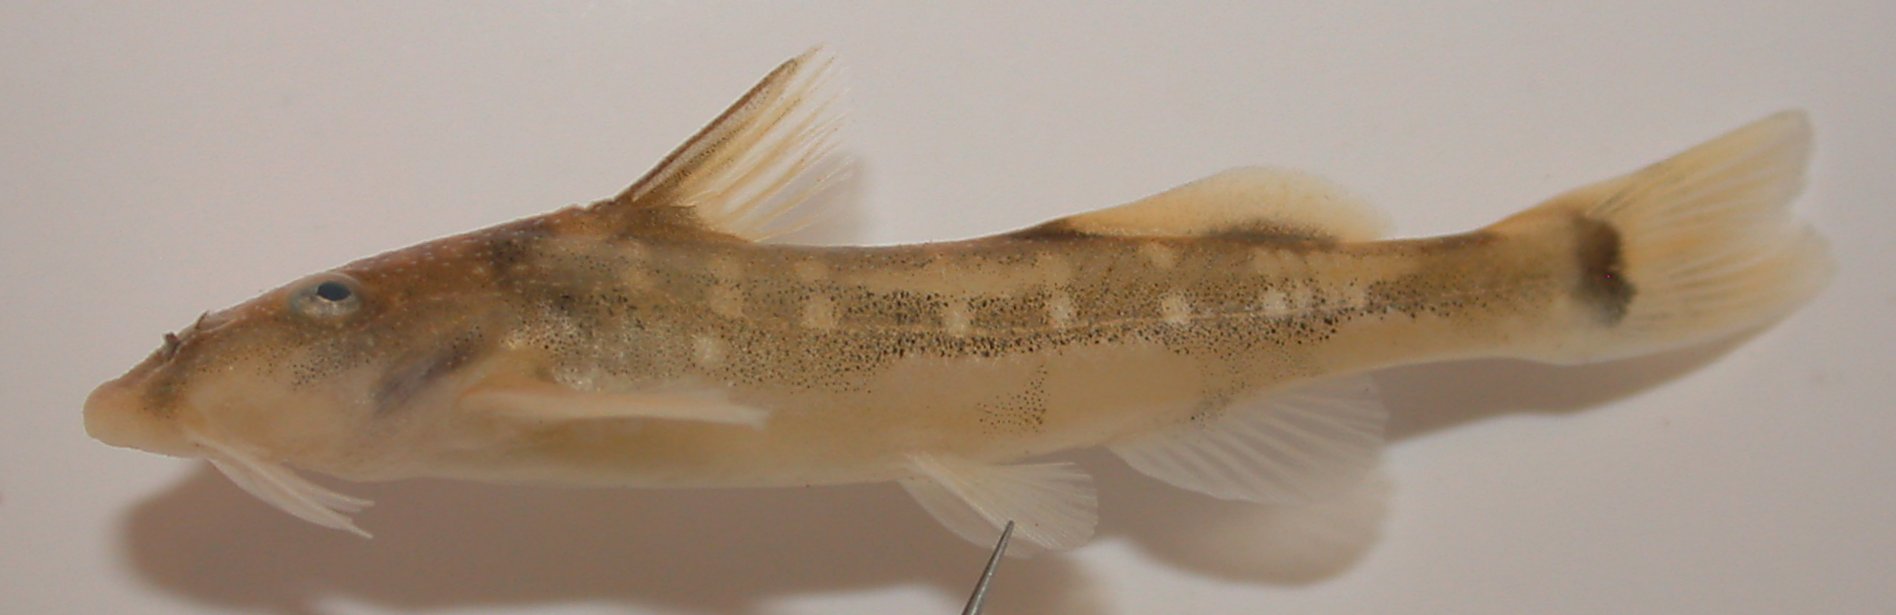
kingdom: Animalia
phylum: Chordata
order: Siluriformes
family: Mochokidae
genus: Chiloglanis
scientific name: Chiloglanis swierstrai
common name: Lowveld suckermouth
